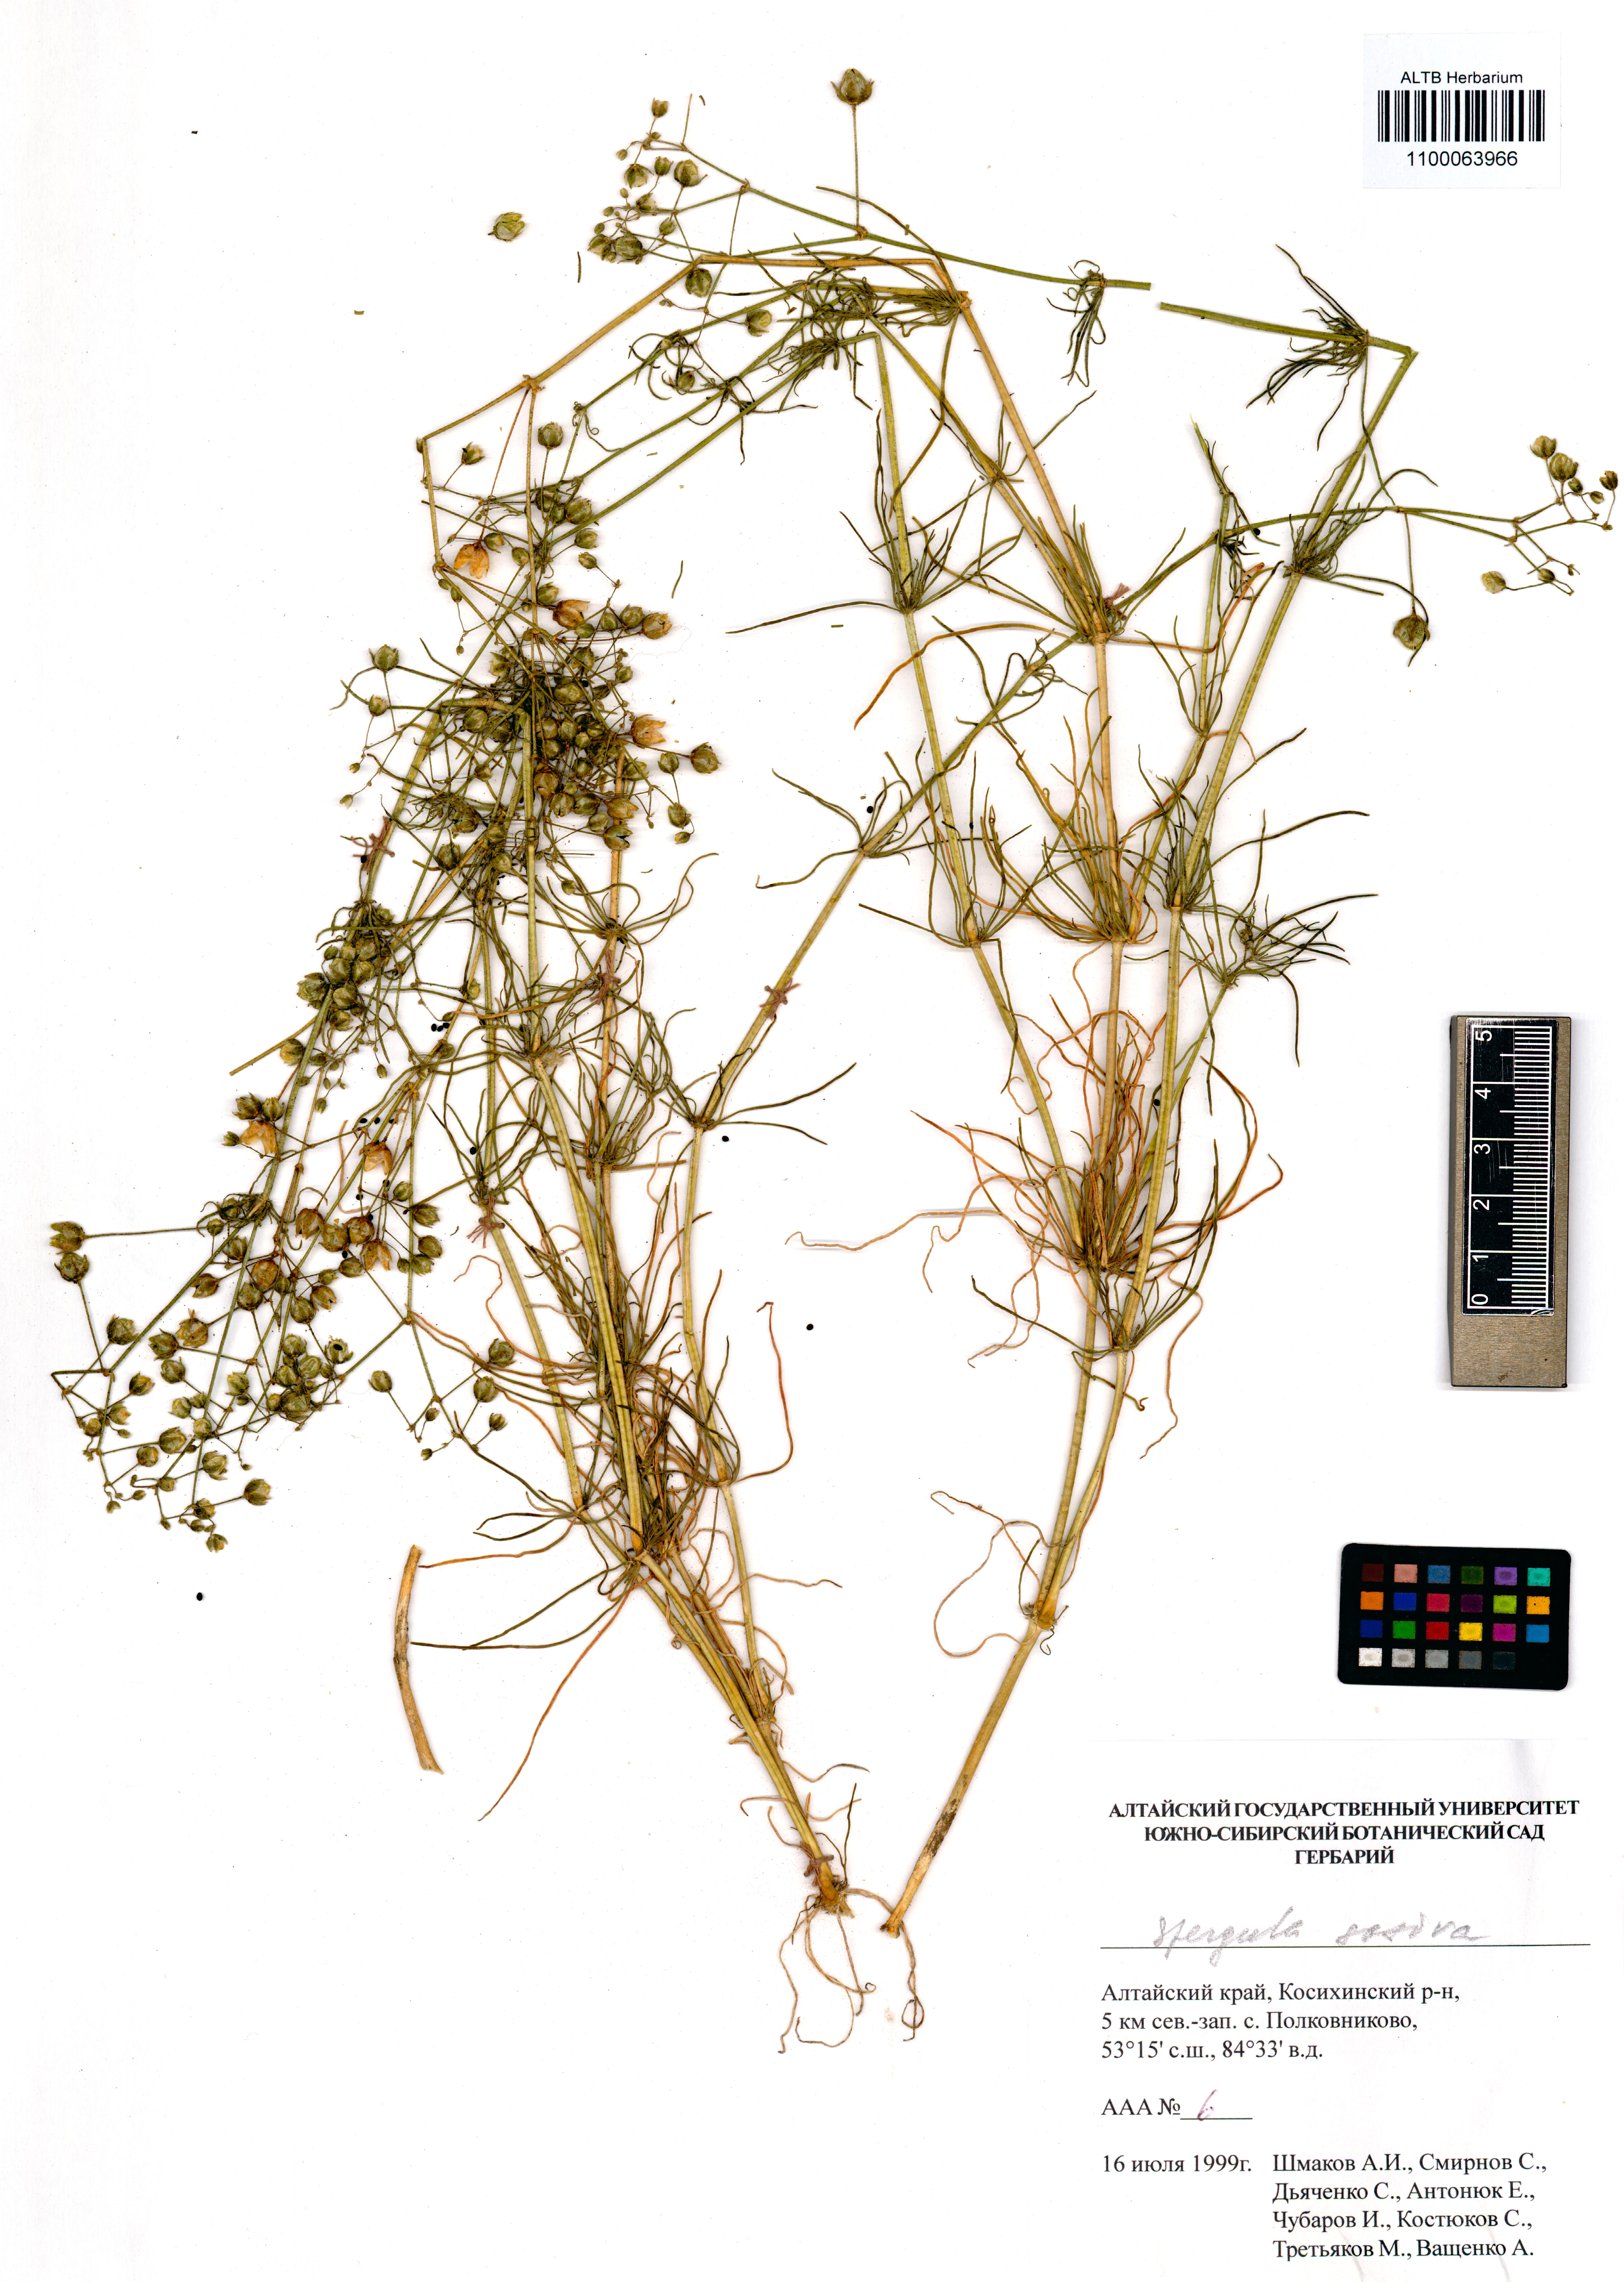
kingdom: Plantae
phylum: Tracheophyta
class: Magnoliopsida
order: Caryophyllales
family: Caryophyllaceae
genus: Spergula
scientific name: Spergula arvensis
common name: Corn spurrey
